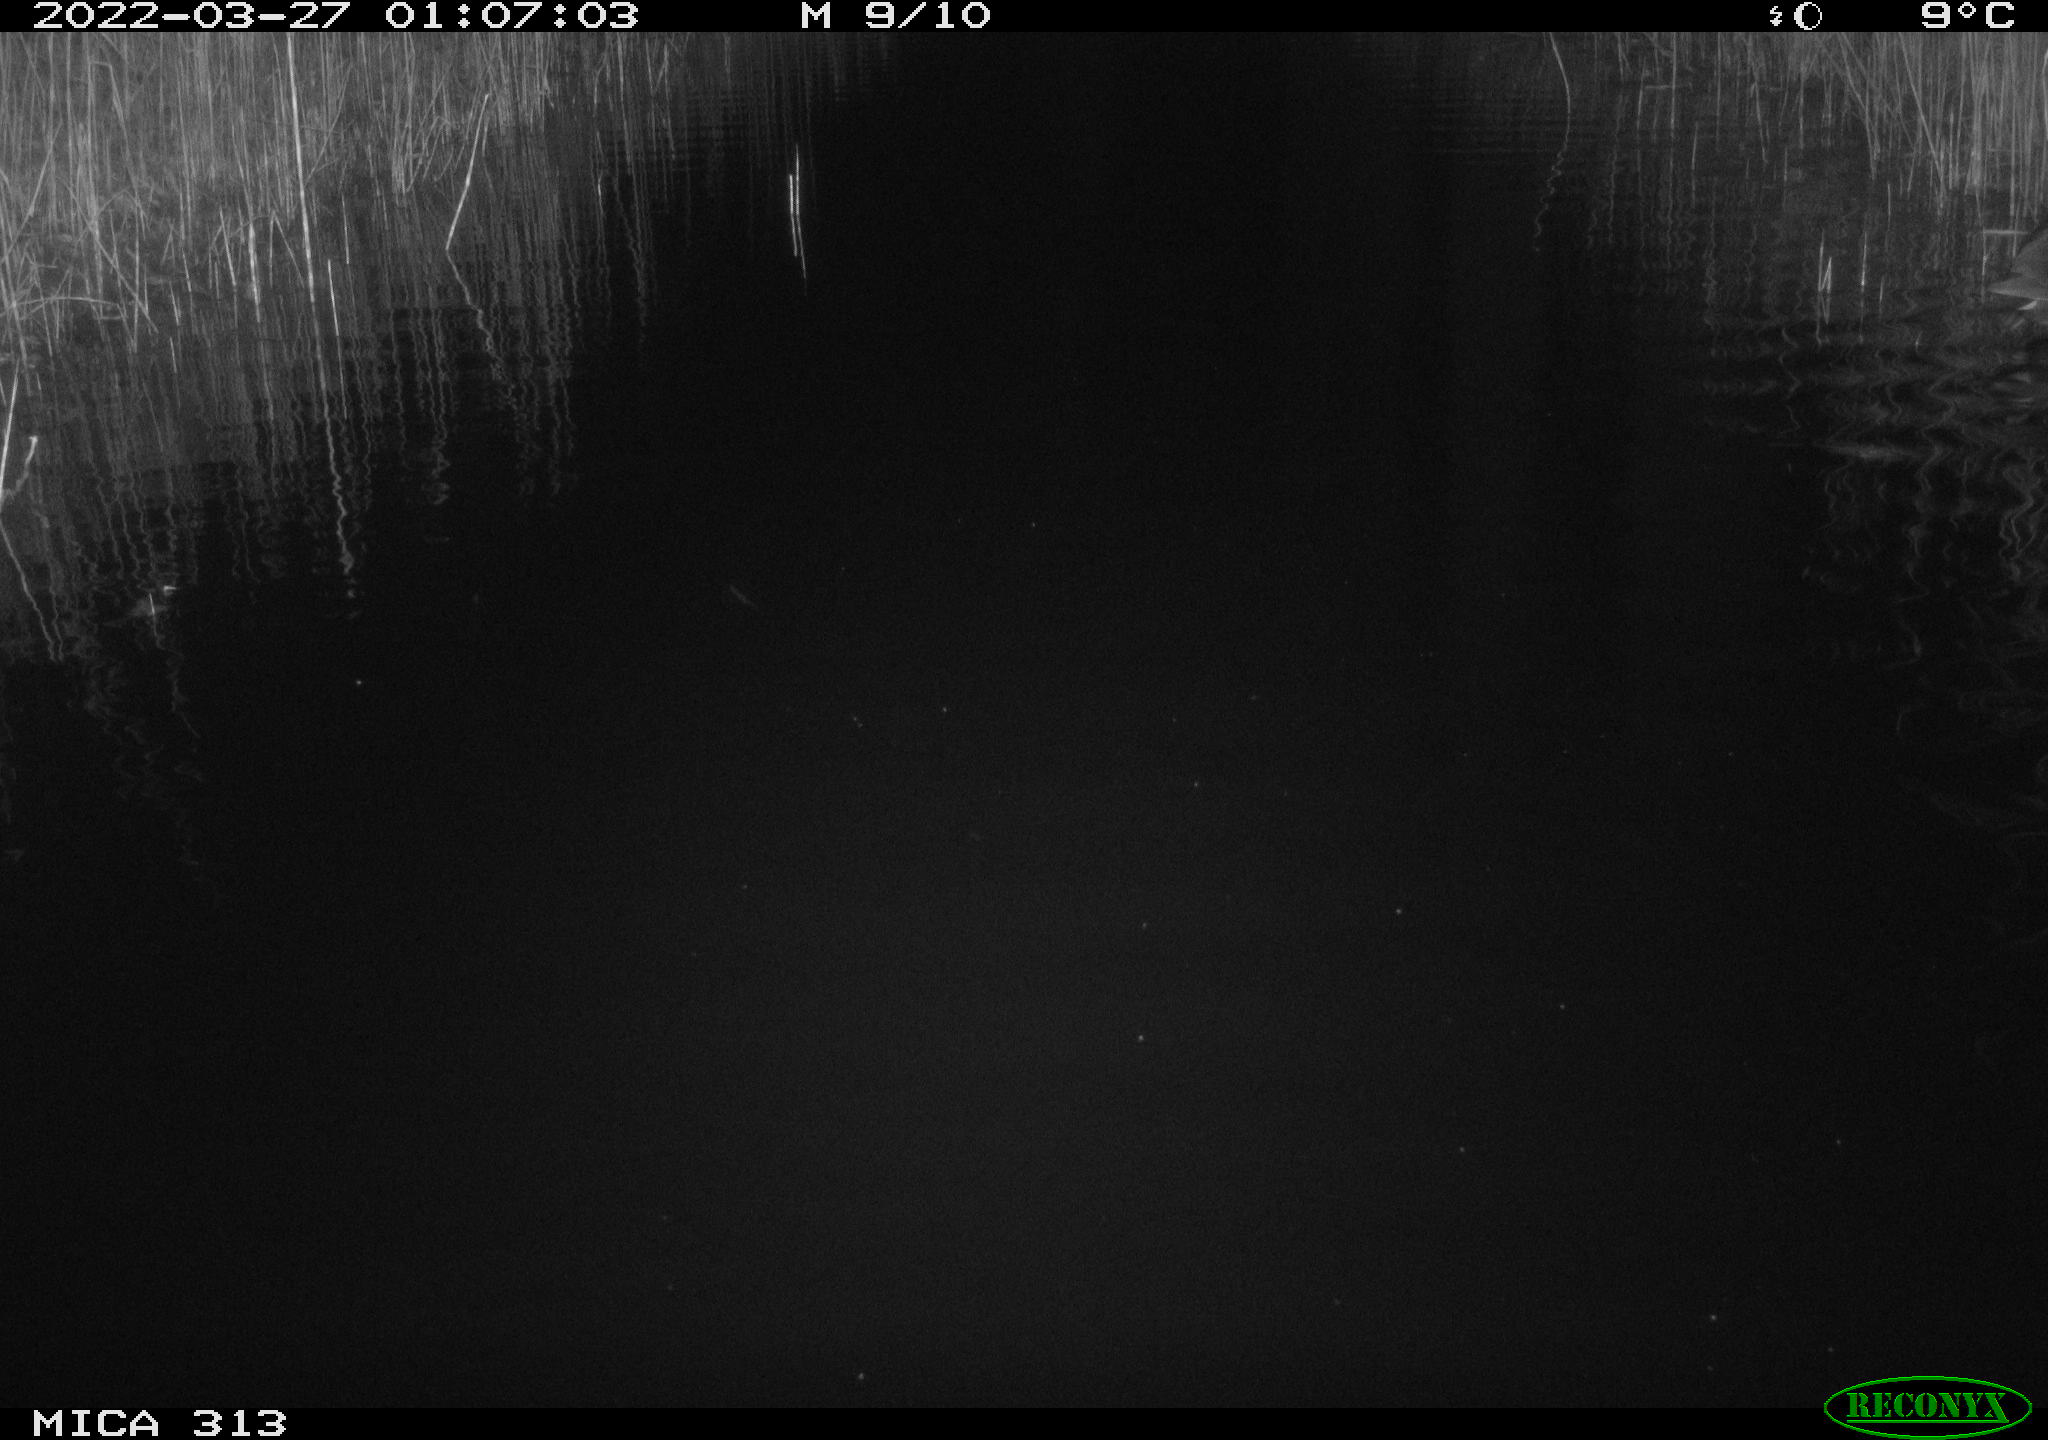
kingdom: Animalia
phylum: Chordata
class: Mammalia
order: Rodentia
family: Cricetidae
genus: Ondatra
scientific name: Ondatra zibethicus
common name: Muskrat
